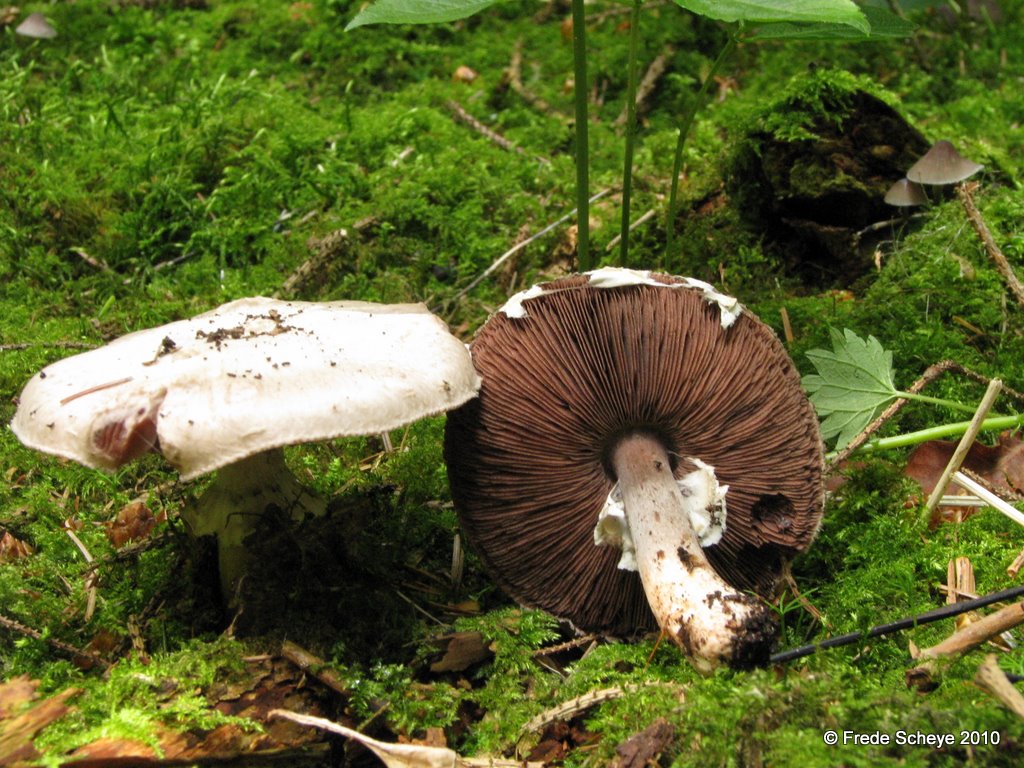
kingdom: Fungi
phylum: Basidiomycota
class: Agaricomycetes
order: Agaricales
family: Agaricaceae
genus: Agaricus
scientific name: Agaricus altipes
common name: sommer-champignon
